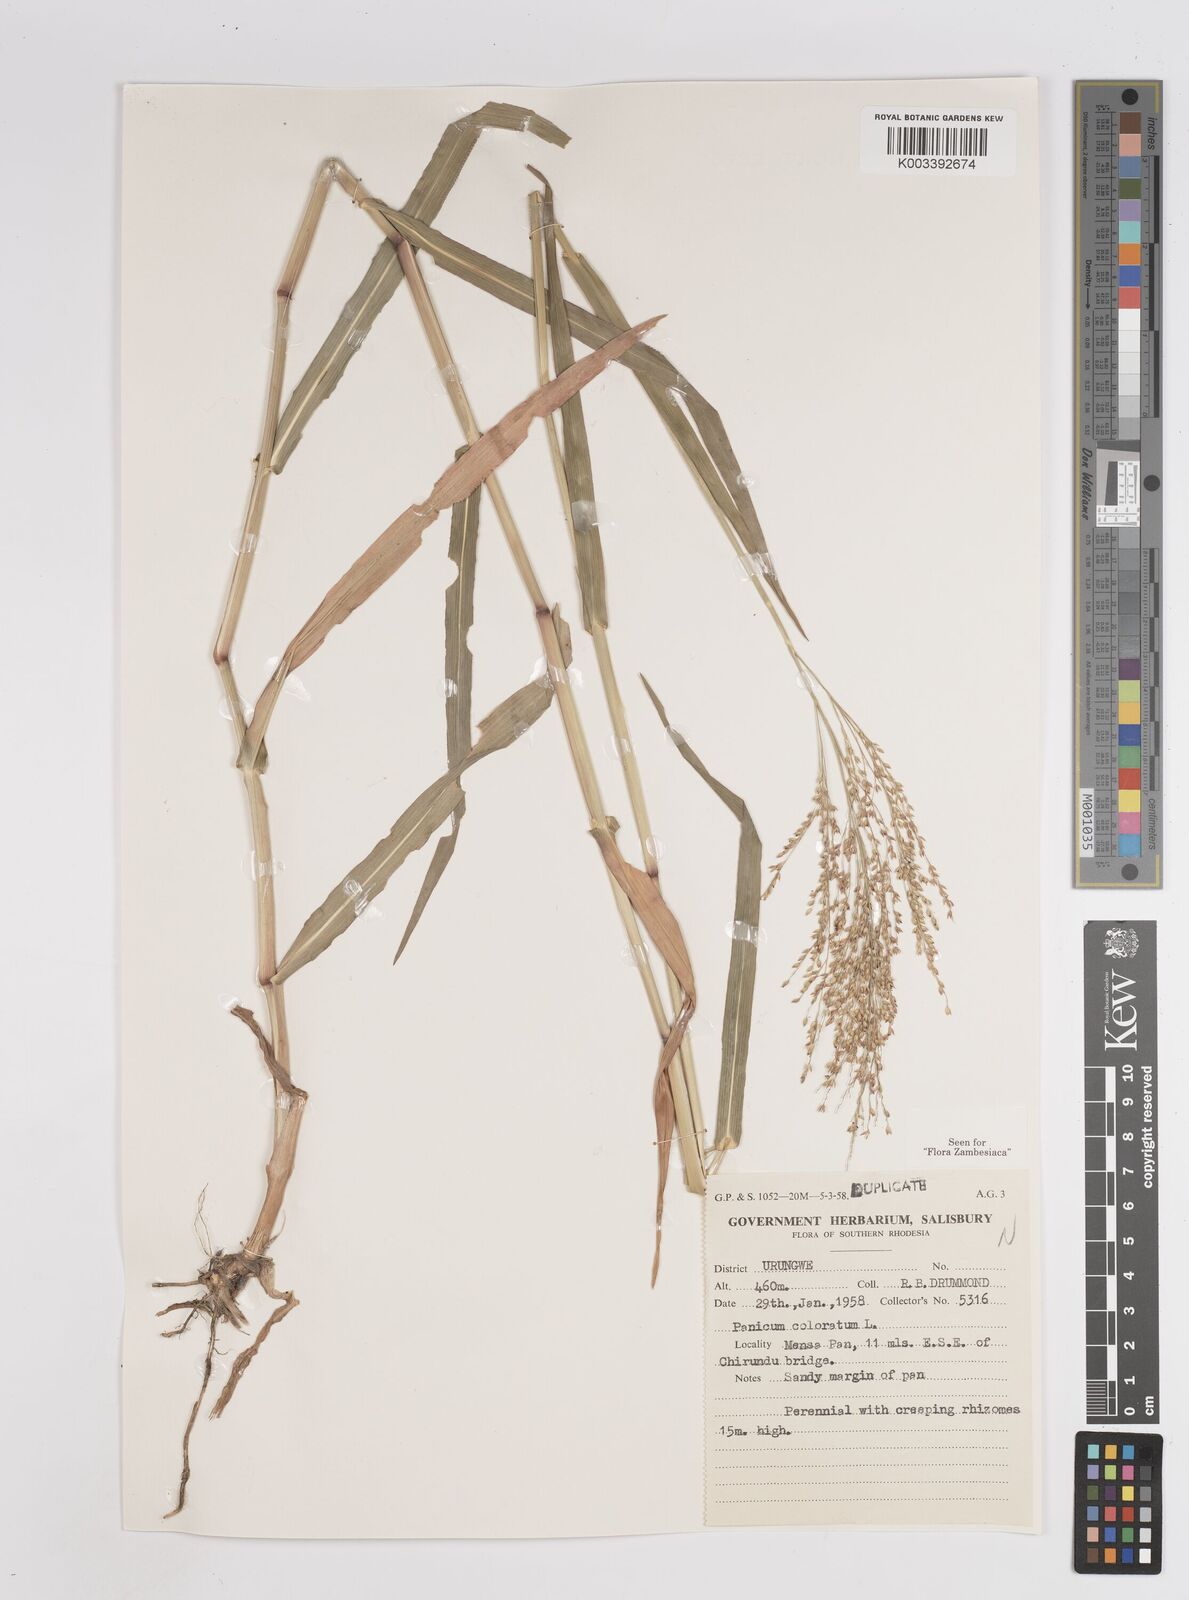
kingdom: Plantae
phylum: Tracheophyta
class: Liliopsida
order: Poales
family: Poaceae
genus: Panicum
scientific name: Panicum
